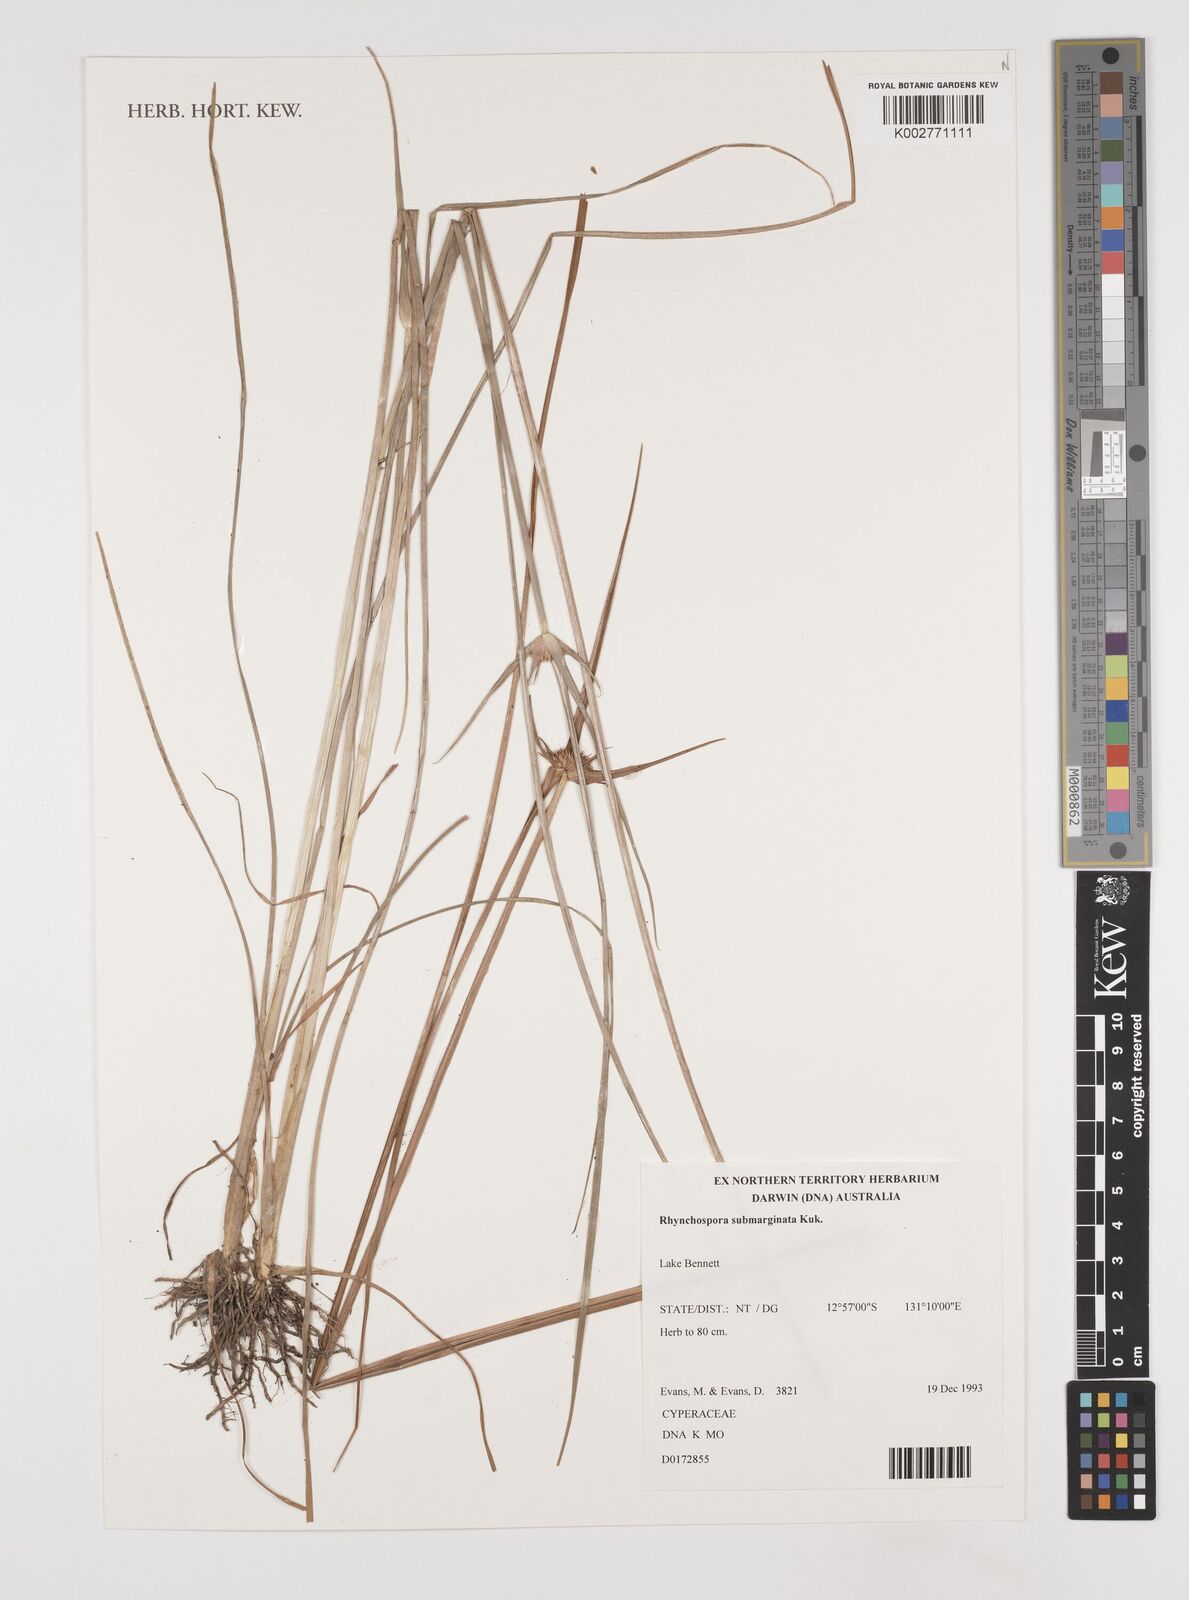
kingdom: Plantae
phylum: Tracheophyta
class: Liliopsida
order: Poales
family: Cyperaceae
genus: Rhynchospora
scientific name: Rhynchospora submarginata
